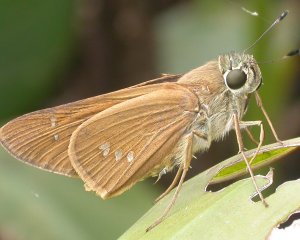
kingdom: Animalia
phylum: Arthropoda
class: Insecta
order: Lepidoptera
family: Hesperiidae
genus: Calpodes
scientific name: Calpodes ethlius
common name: Brazilian Skipper
